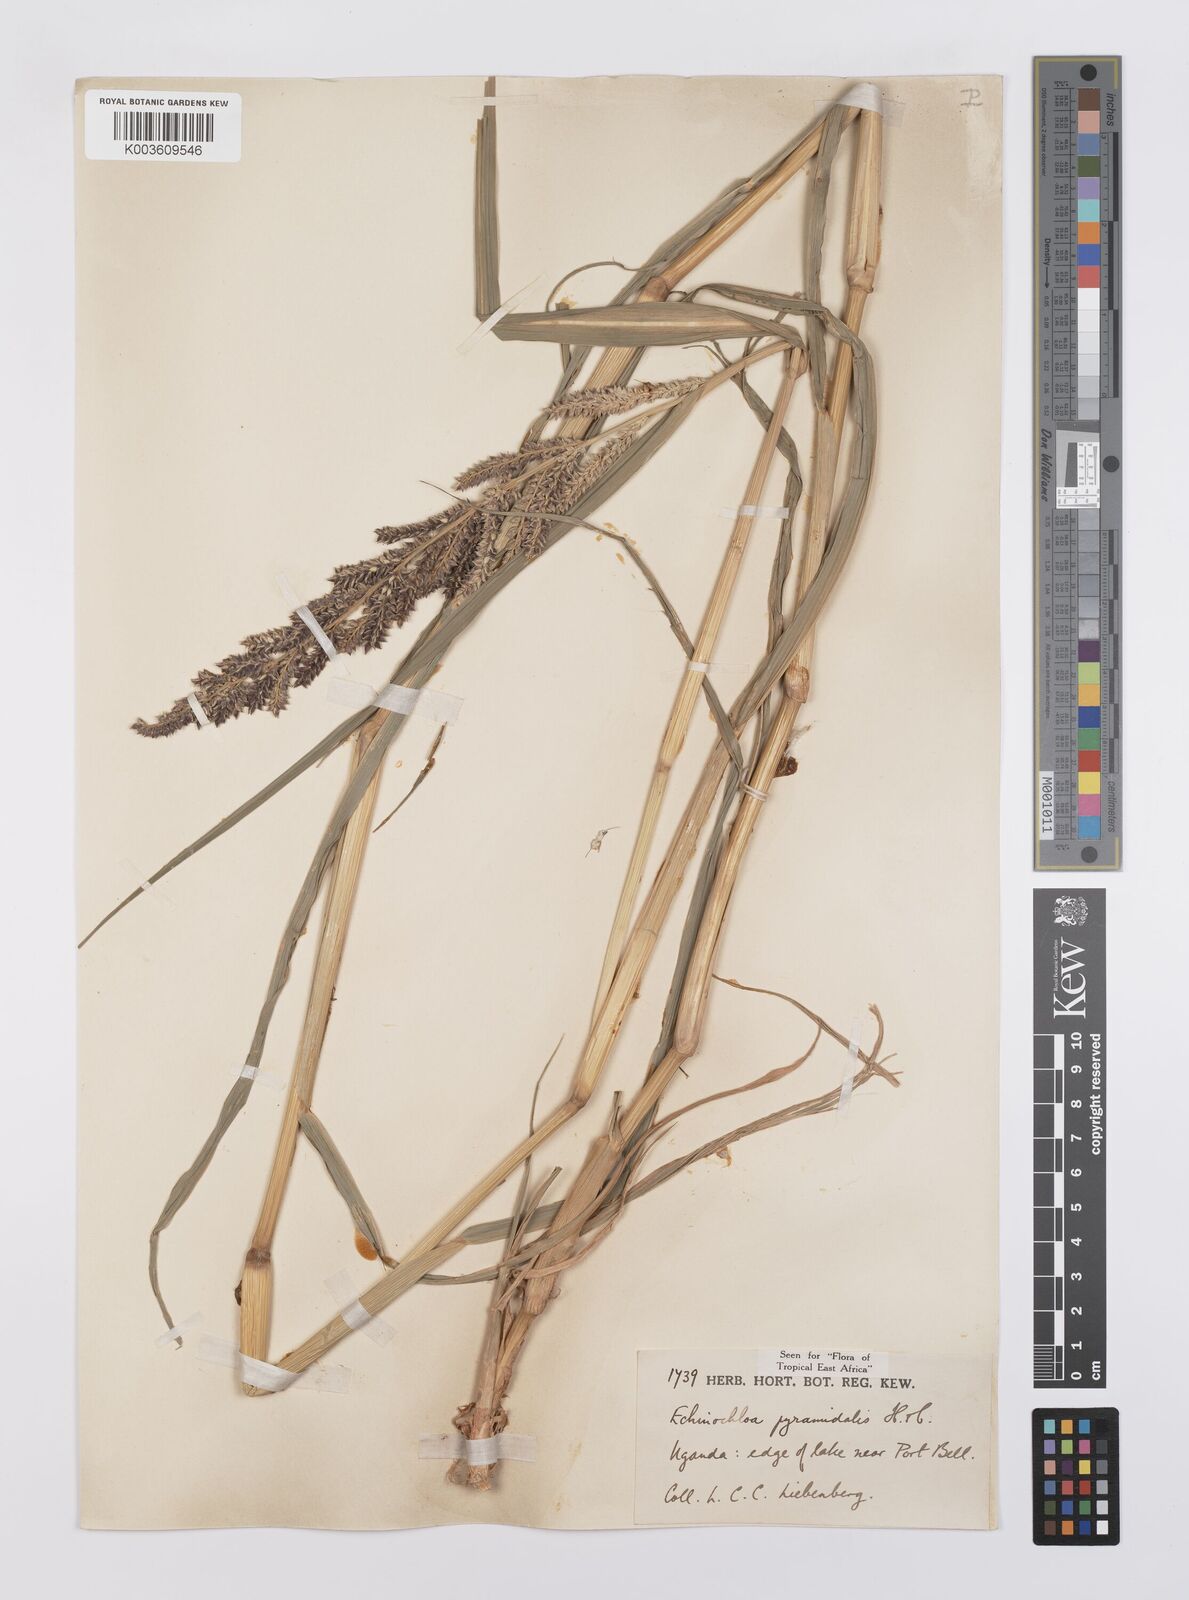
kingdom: Plantae
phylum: Tracheophyta
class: Liliopsida
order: Poales
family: Poaceae
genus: Echinochloa
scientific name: Echinochloa pyramidalis
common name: Antelope grass
